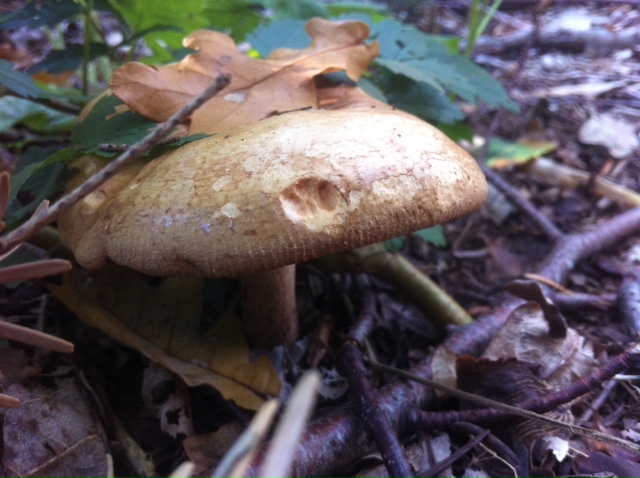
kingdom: Fungi
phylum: Basidiomycota
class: Agaricomycetes
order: Boletales
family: Paxillaceae
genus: Paxillus
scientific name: Paxillus involutus
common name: almindelig netbladhat
